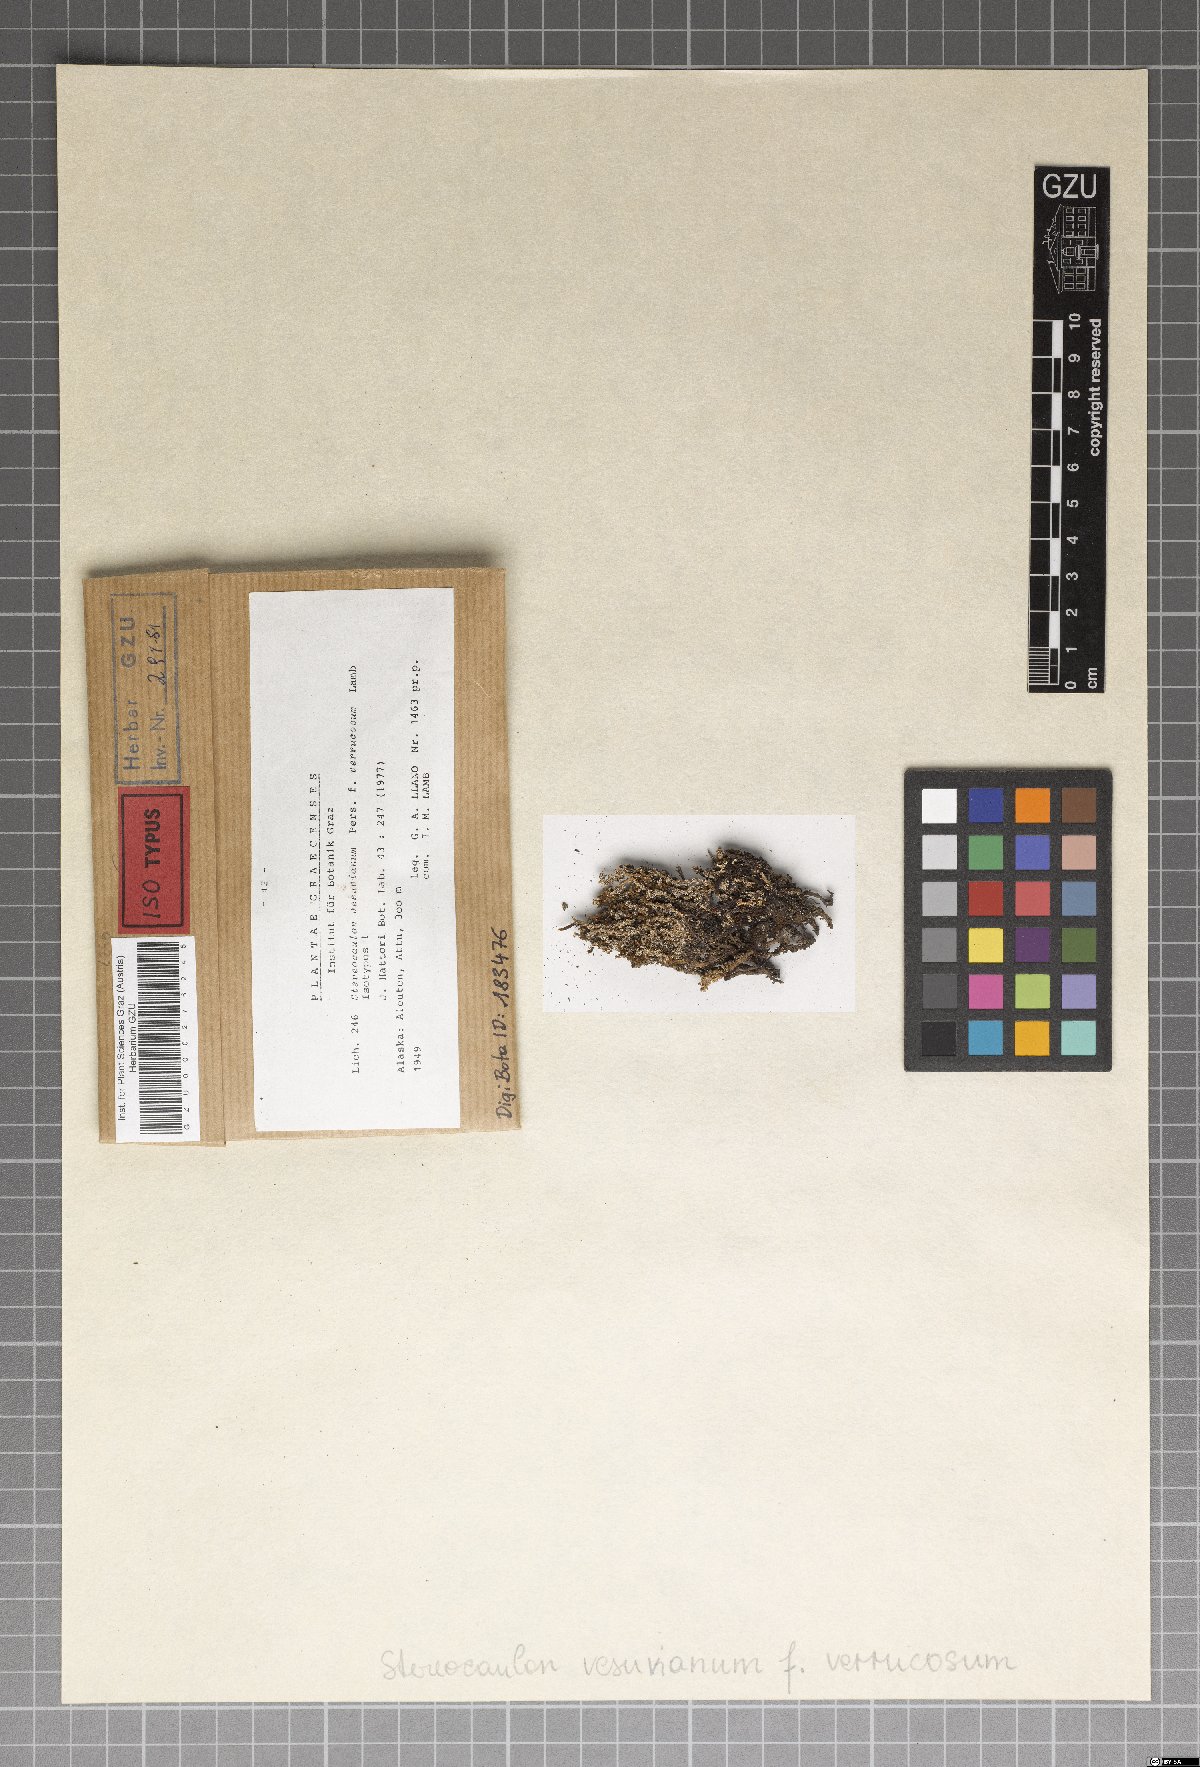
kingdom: Fungi
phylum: Ascomycota
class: Lecanoromycetes
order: Lecanorales
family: Stereocaulaceae
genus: Stereocaulon
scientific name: Stereocaulon vesuvianum
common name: Variegated foam lichen
